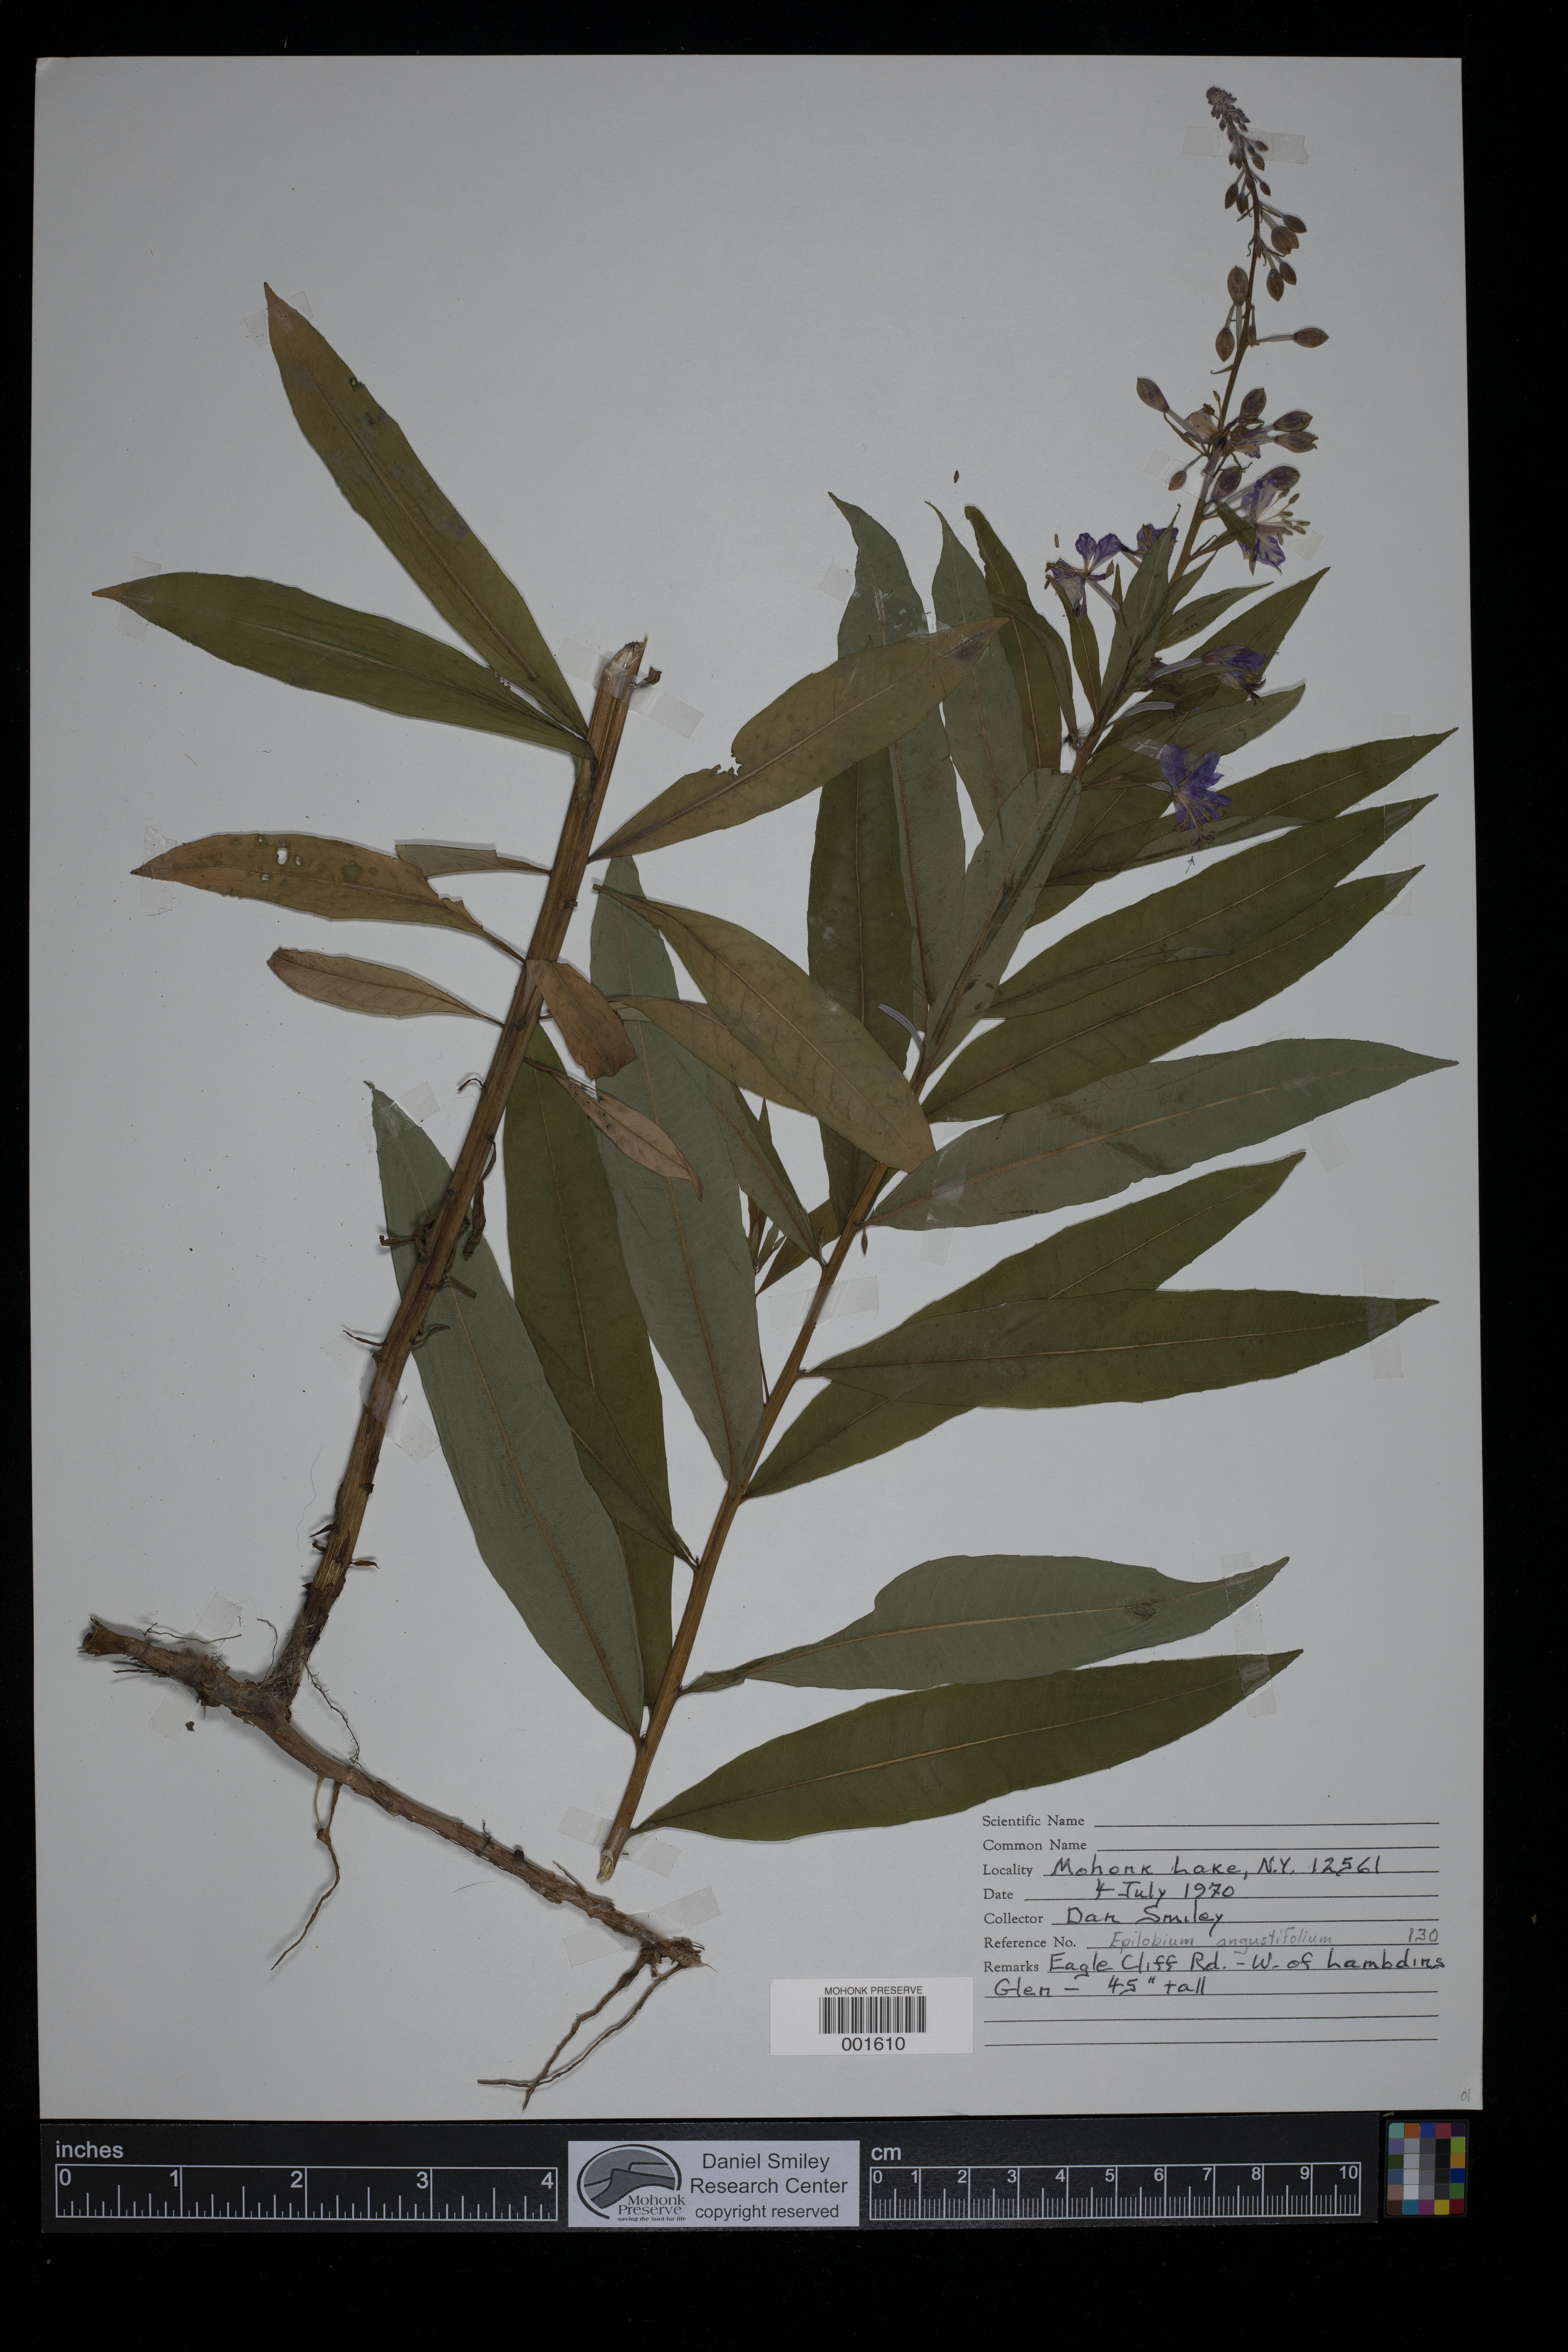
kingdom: Plantae
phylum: Tracheophyta
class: Magnoliopsida
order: Myrtales
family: Onagraceae
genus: Chamaenerion
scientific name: Chamaenerion angustifolium
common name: Fireweed
